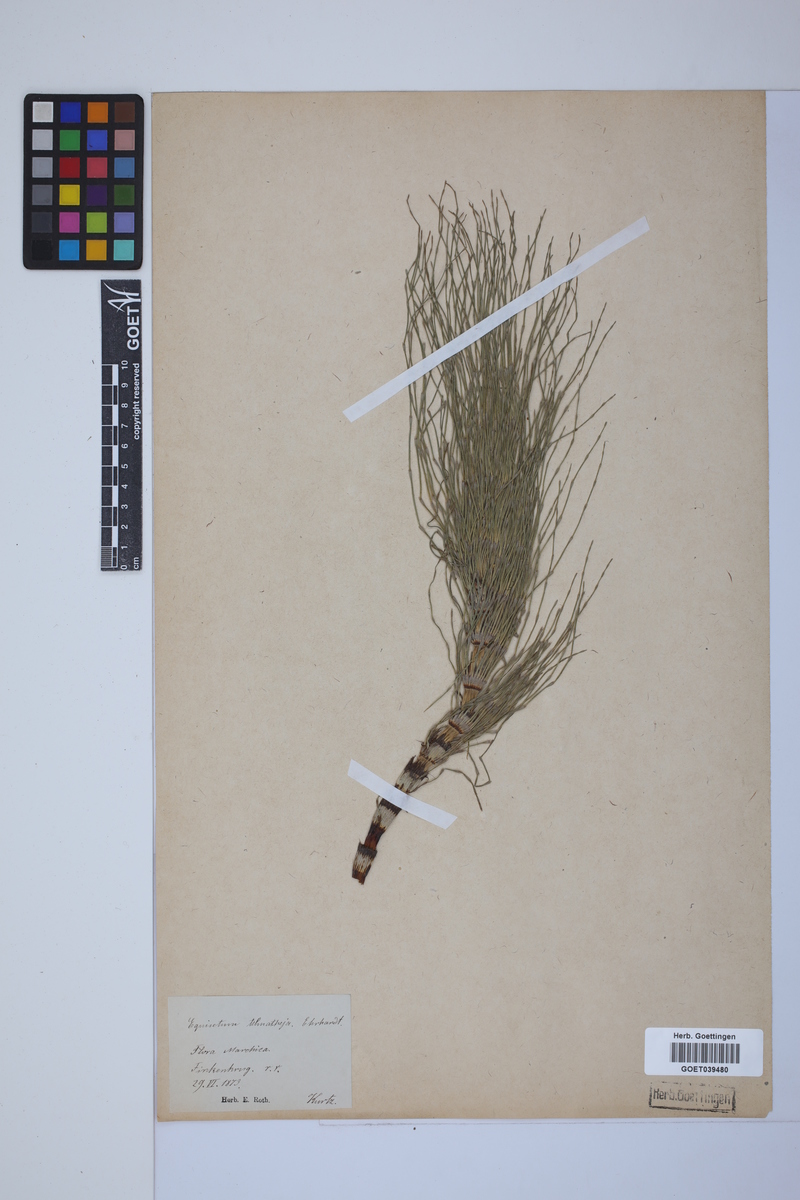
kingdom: Plantae
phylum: Tracheophyta
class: Polypodiopsida
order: Equisetales
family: Equisetaceae
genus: Equisetum
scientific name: Equisetum telmateia
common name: Great horsetail
